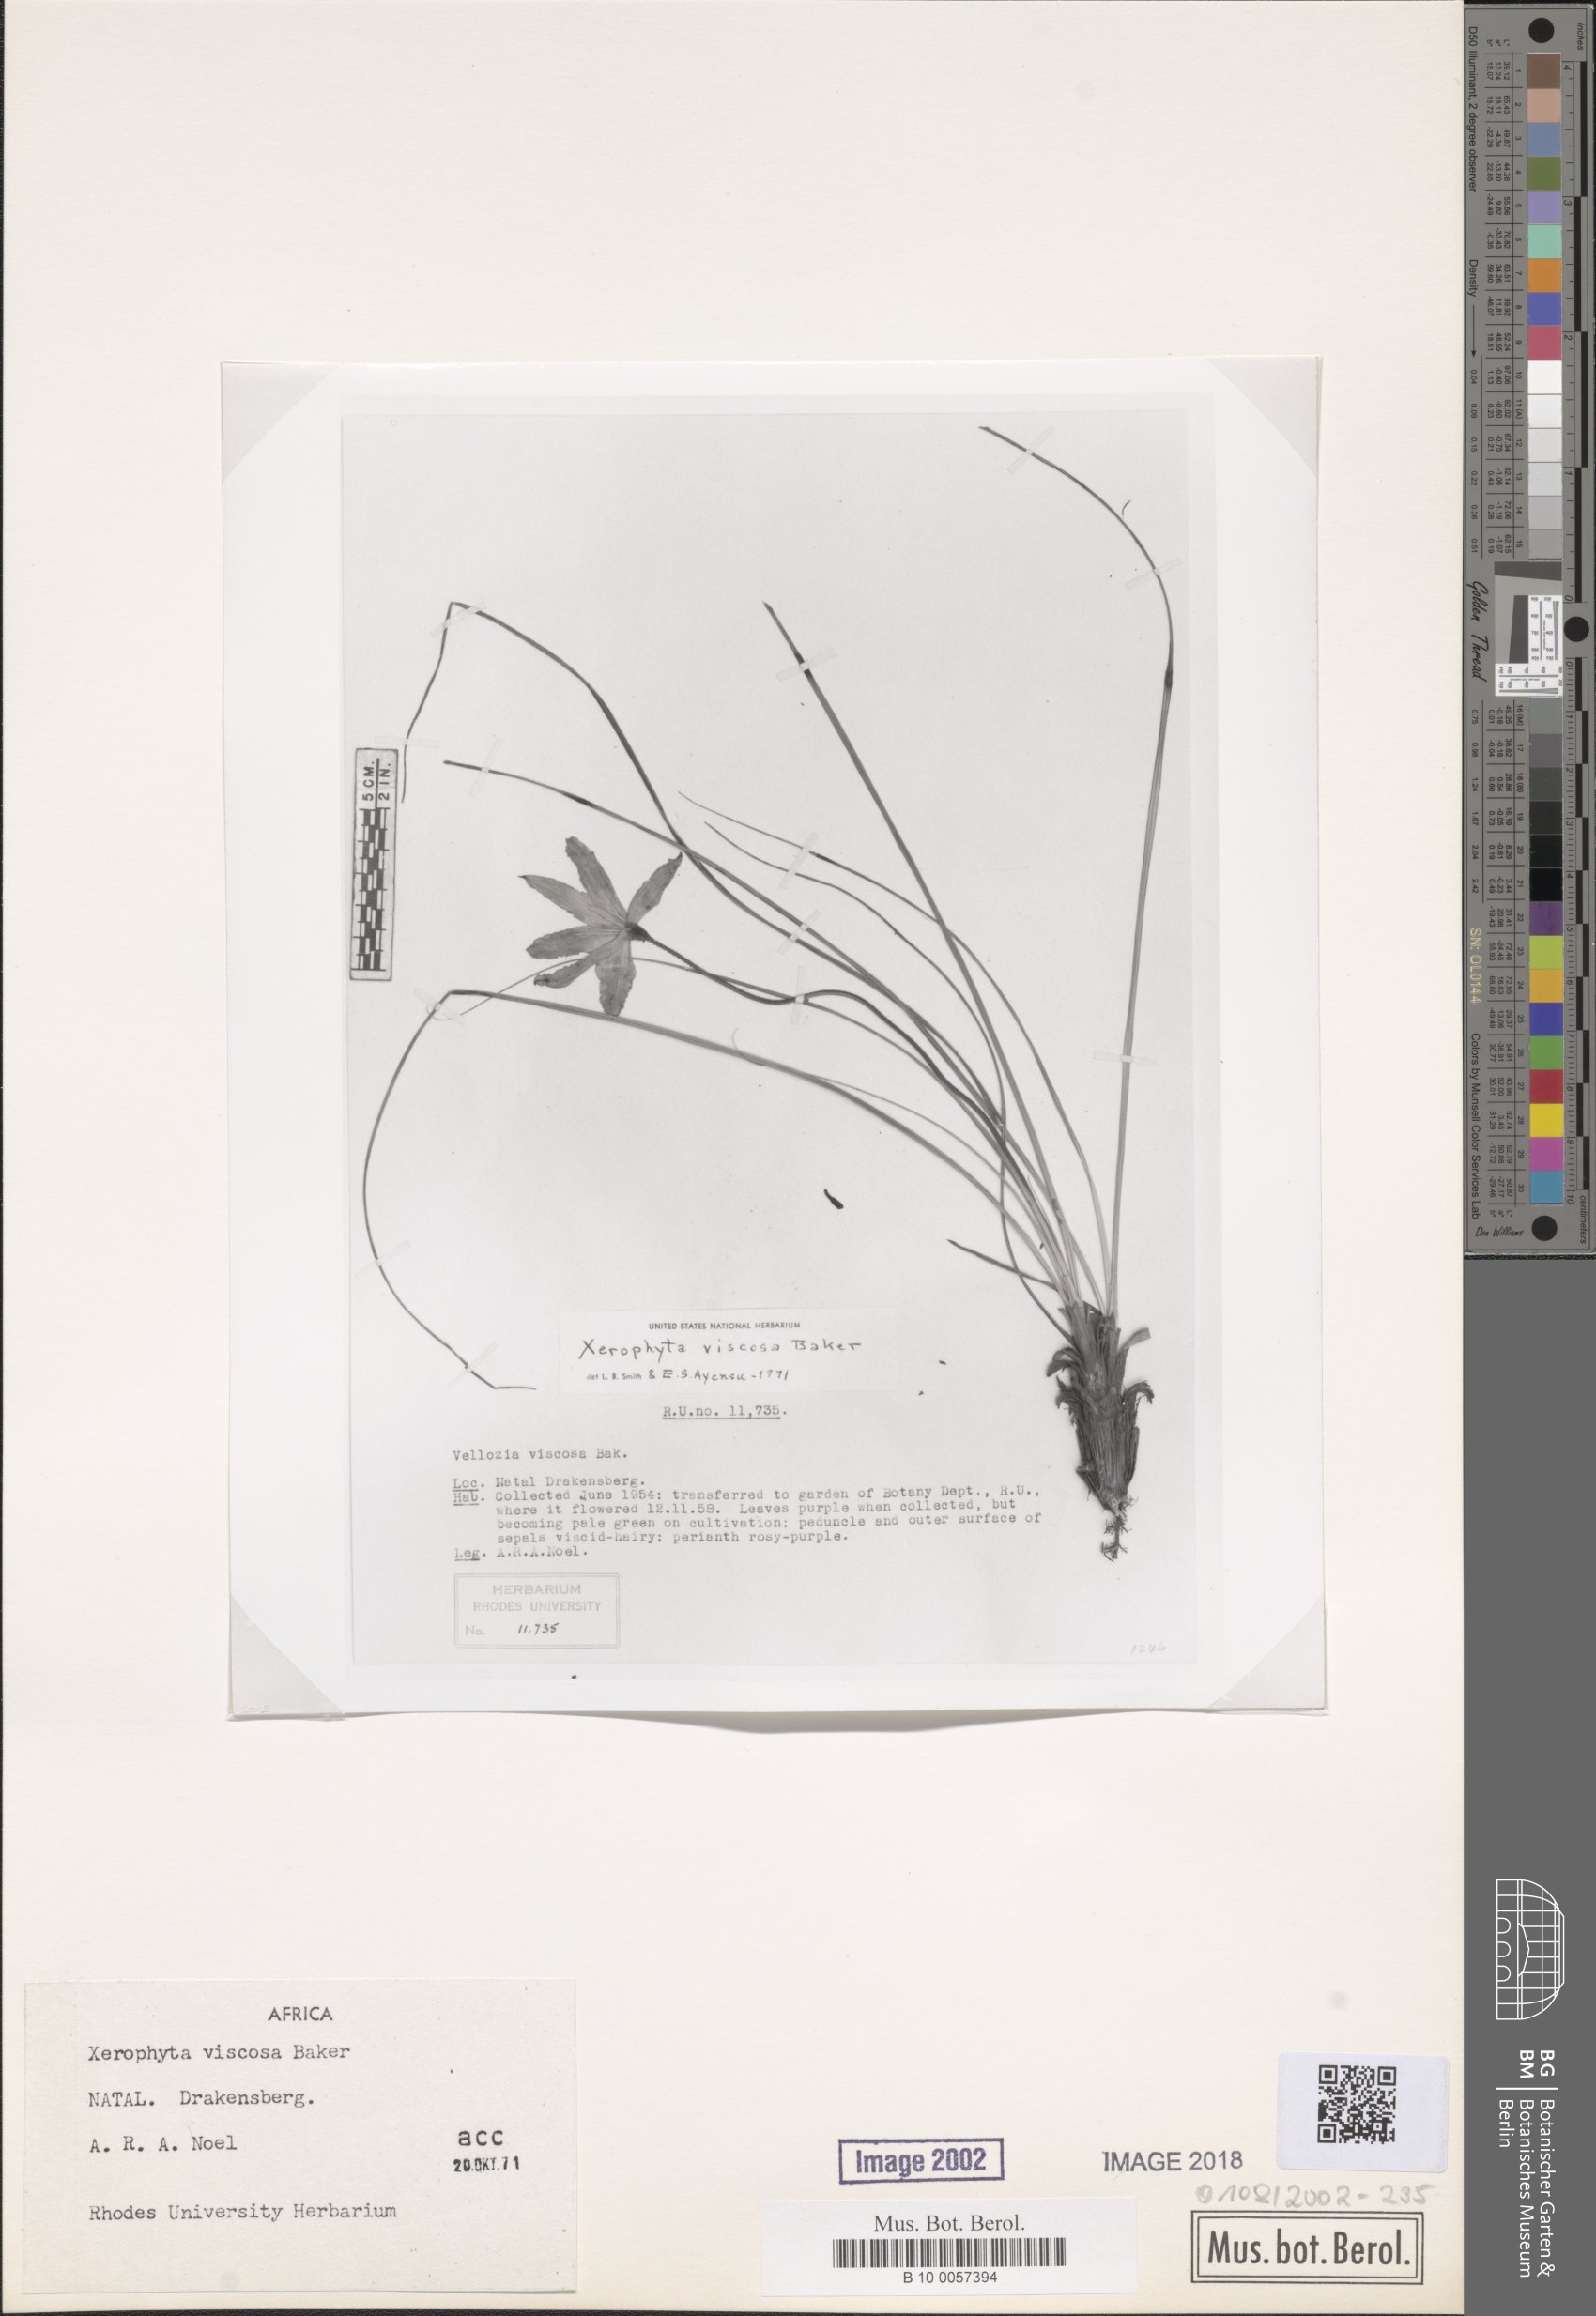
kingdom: Plantae
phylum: Tracheophyta
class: Liliopsida
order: Pandanales
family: Velloziaceae
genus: Xerophyta
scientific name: Xerophyta viscosa
